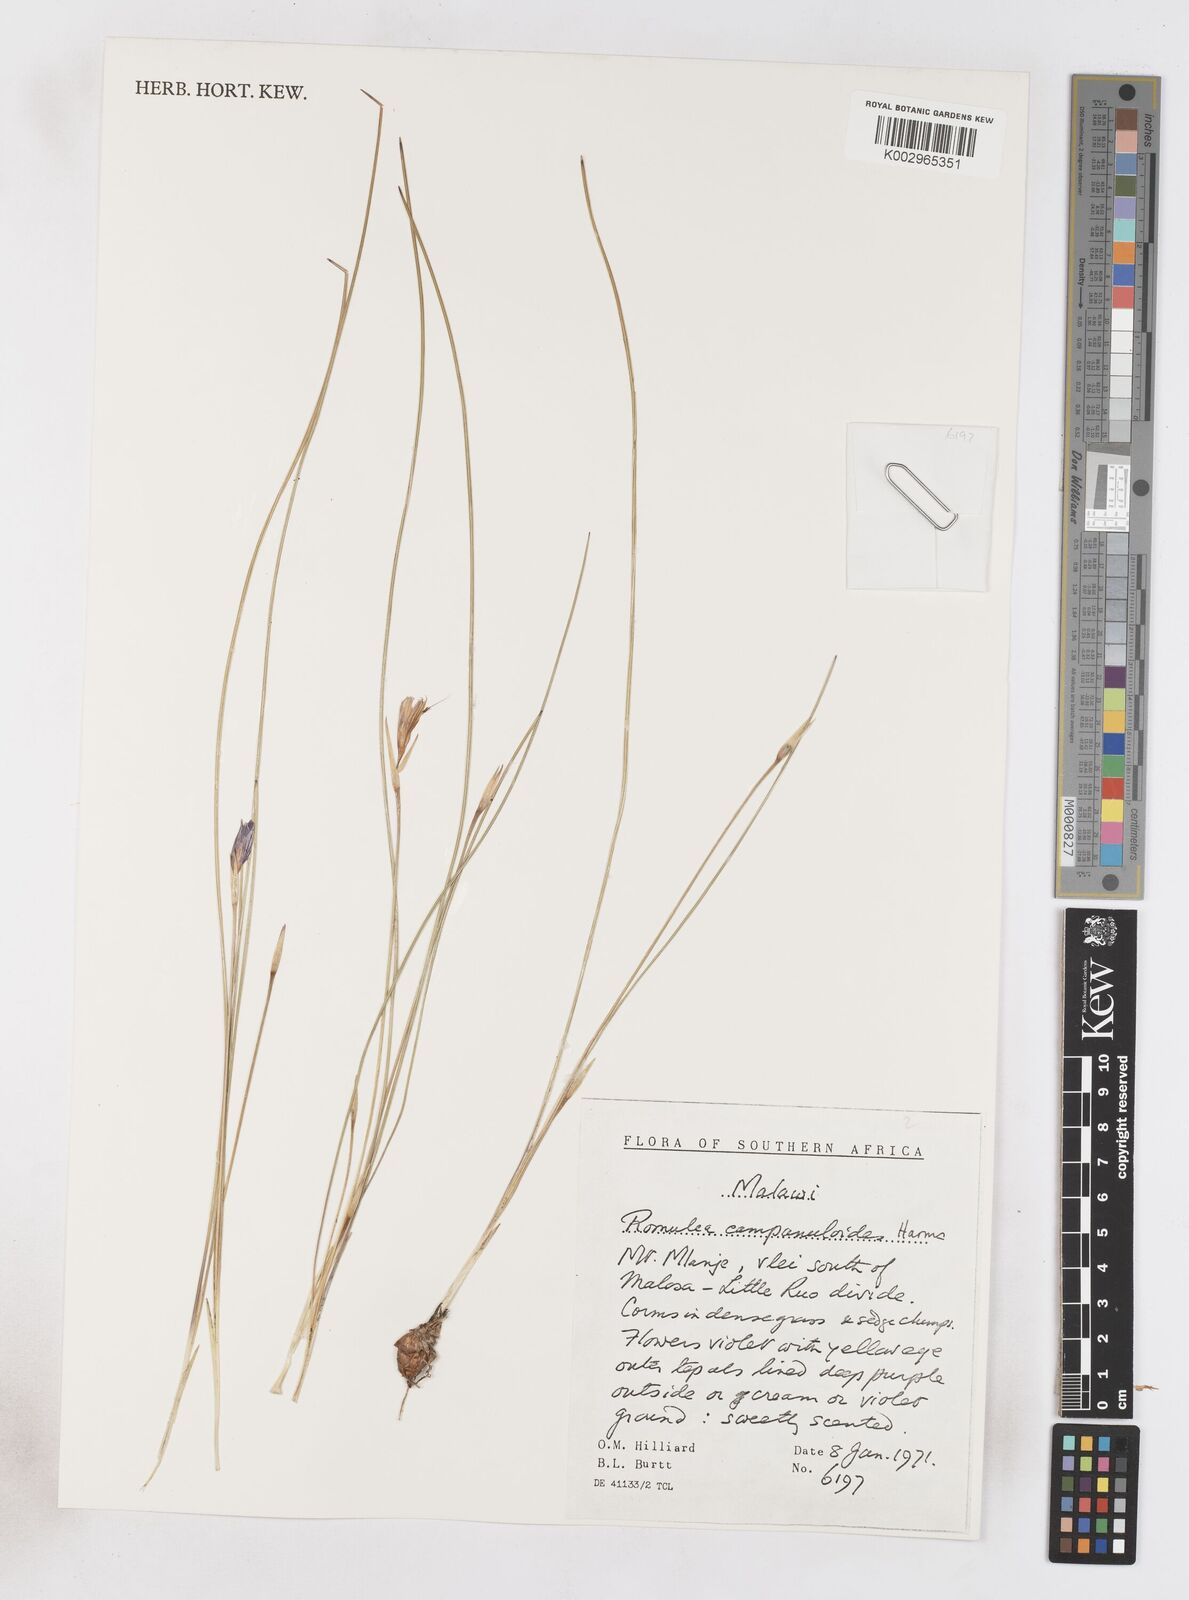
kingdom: Plantae
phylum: Tracheophyta
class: Liliopsida
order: Asparagales
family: Iridaceae
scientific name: Iridaceae
